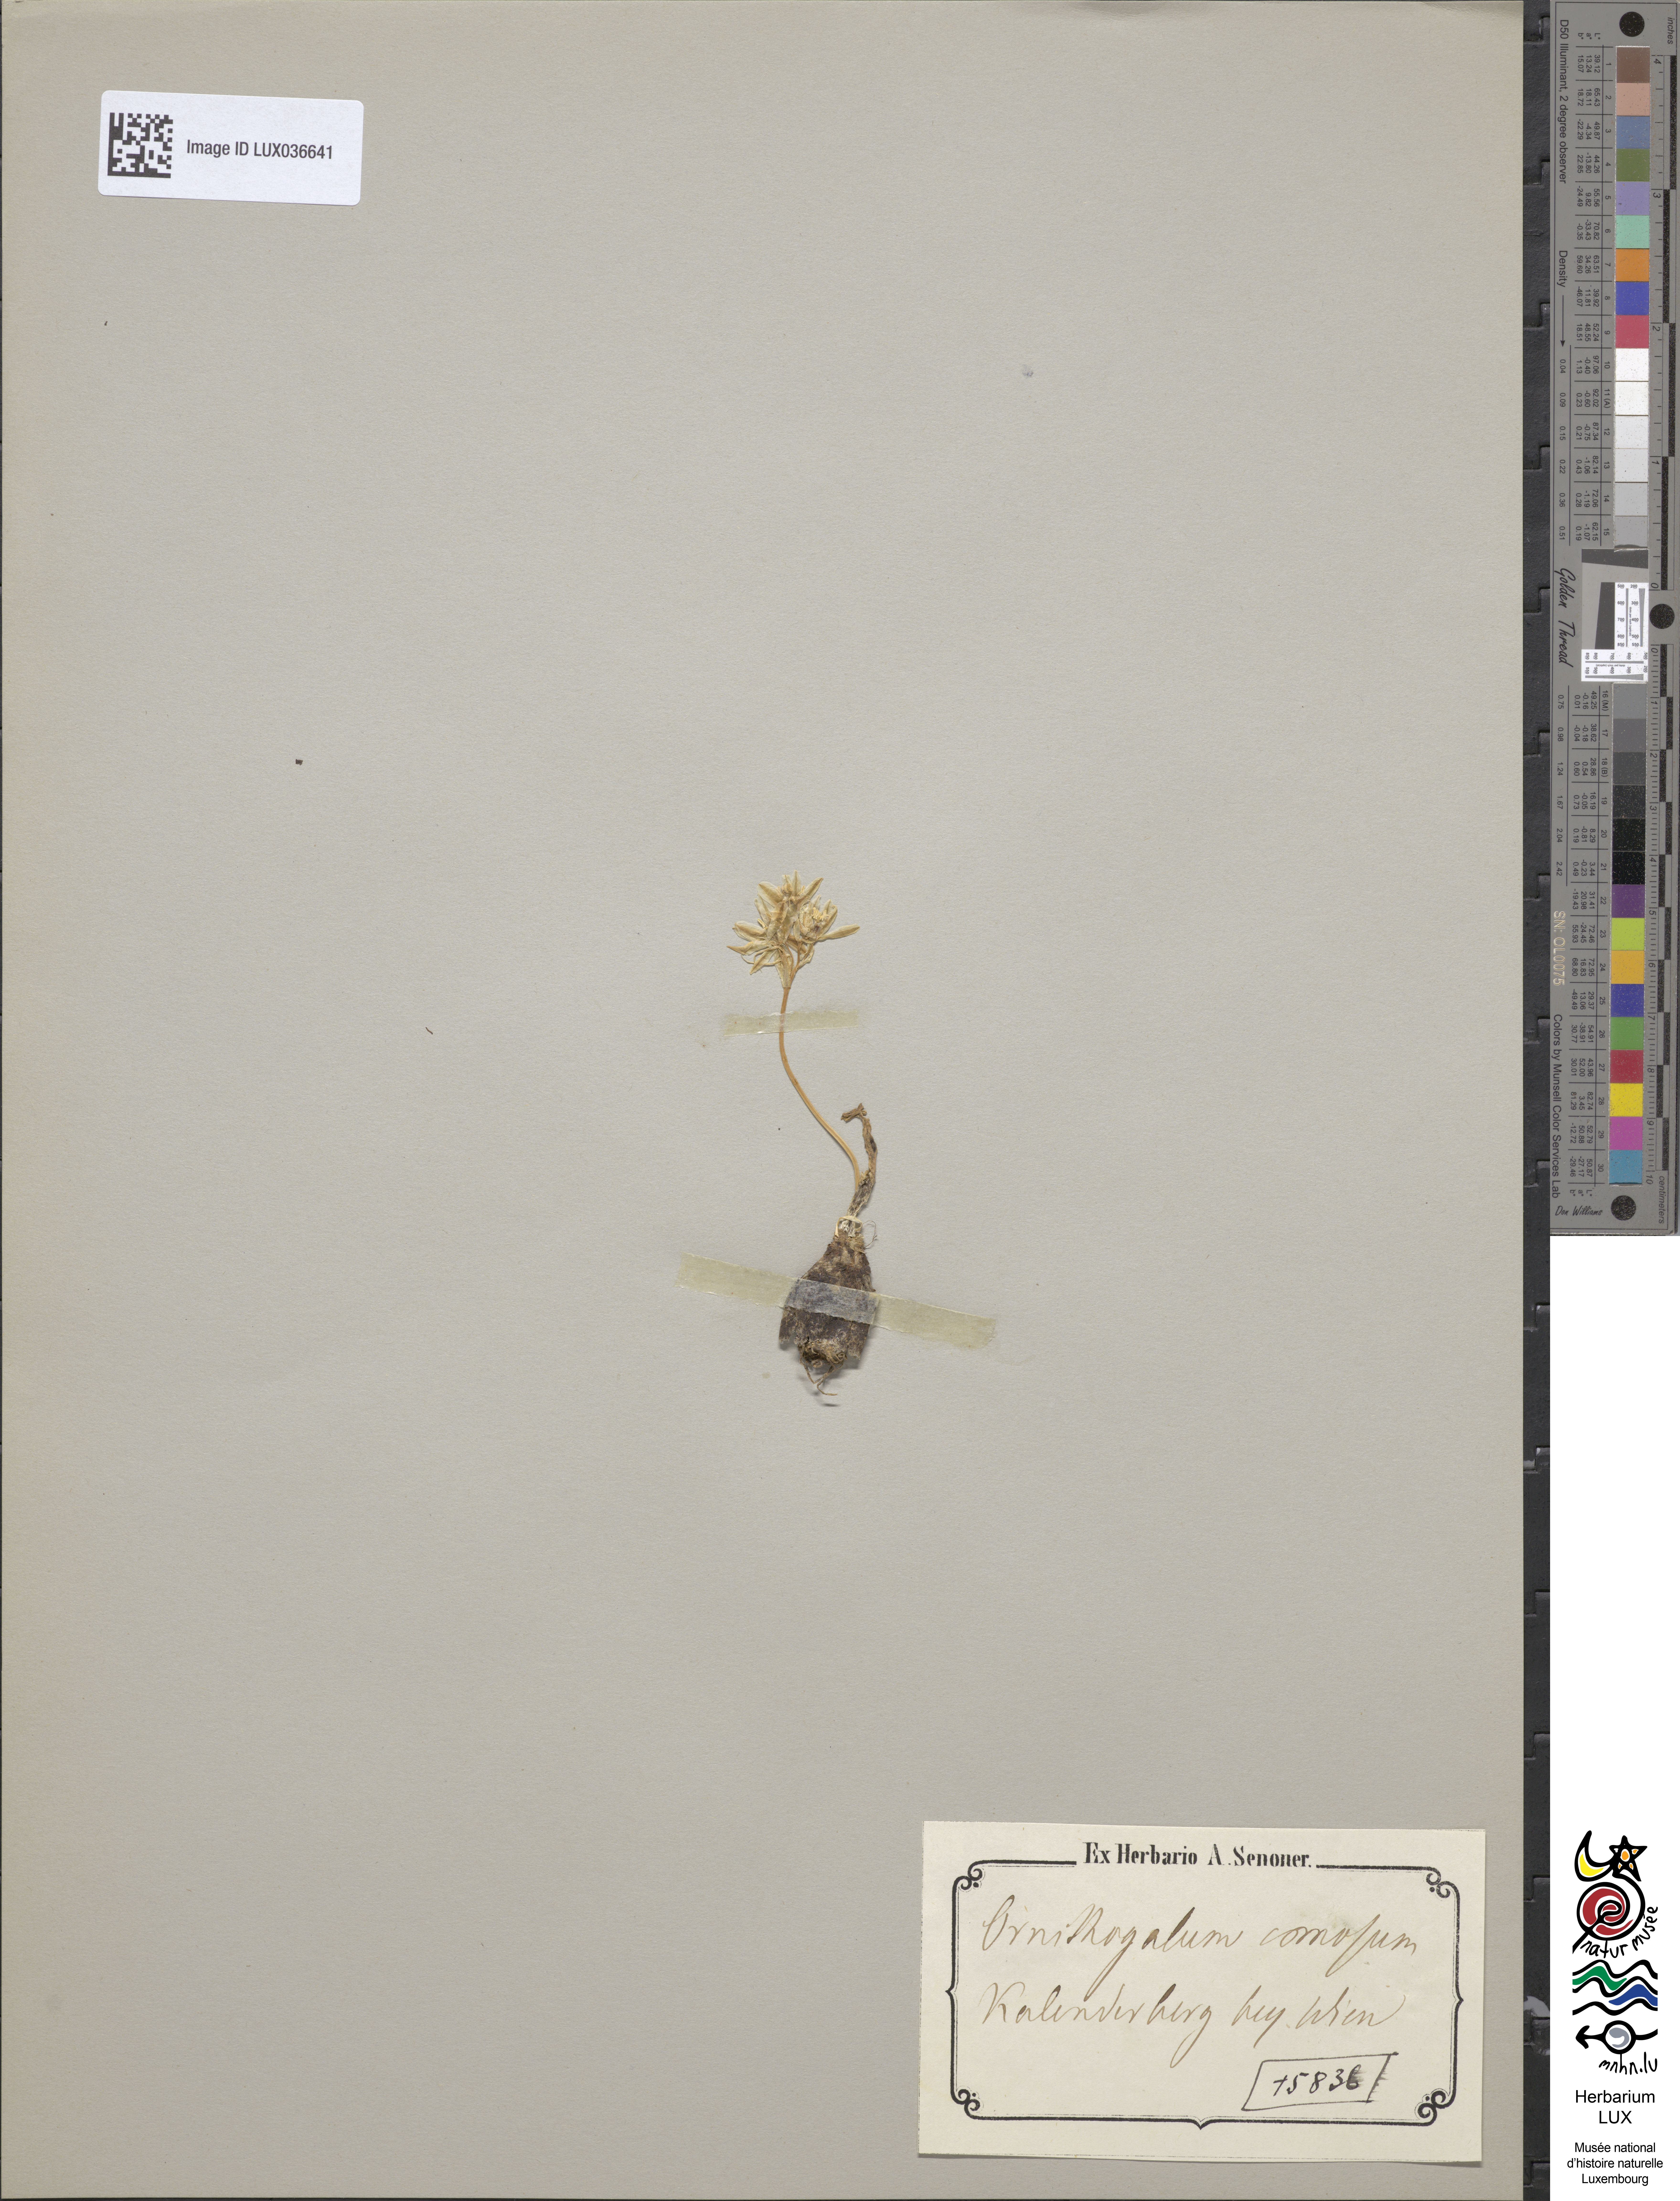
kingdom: Plantae
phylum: Tracheophyta
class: Liliopsida
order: Asparagales
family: Asparagaceae
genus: Ornithogalum
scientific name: Ornithogalum comosum
